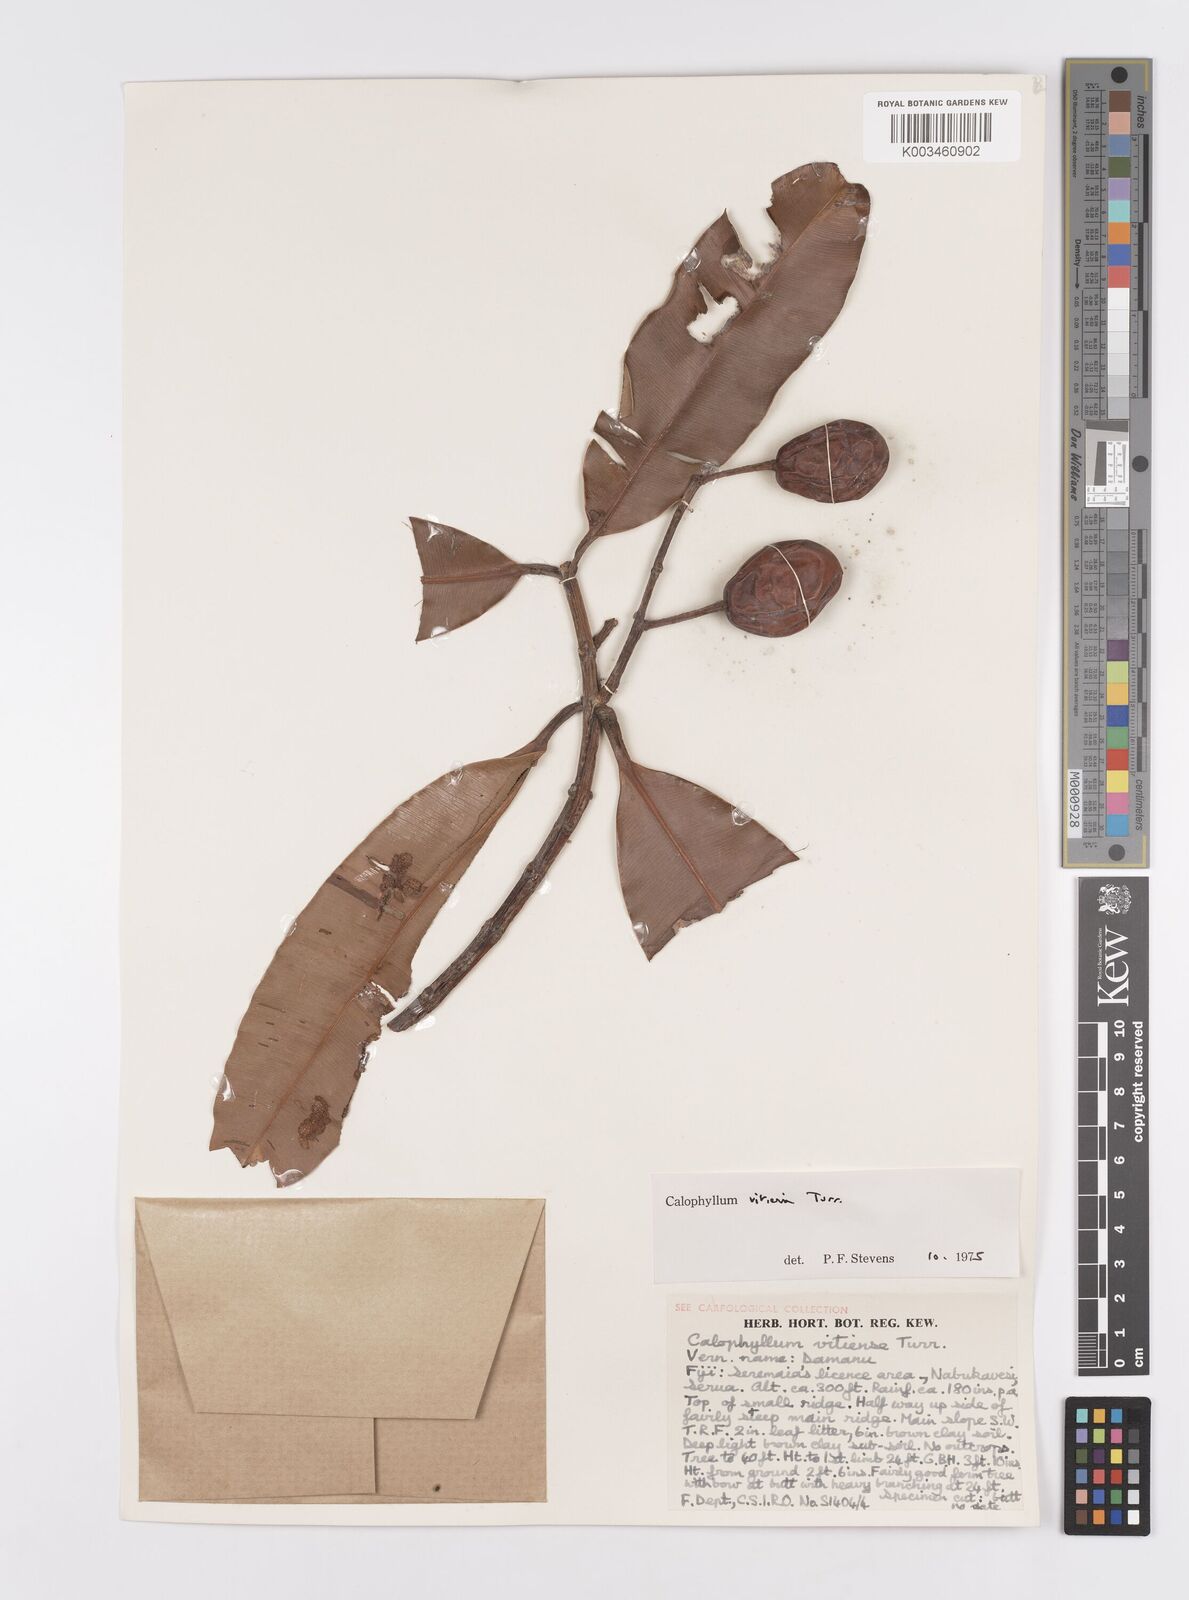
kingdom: Plantae
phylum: Tracheophyta
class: Magnoliopsida
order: Malpighiales
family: Calophyllaceae
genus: Calophyllum
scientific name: Calophyllum vitiense
